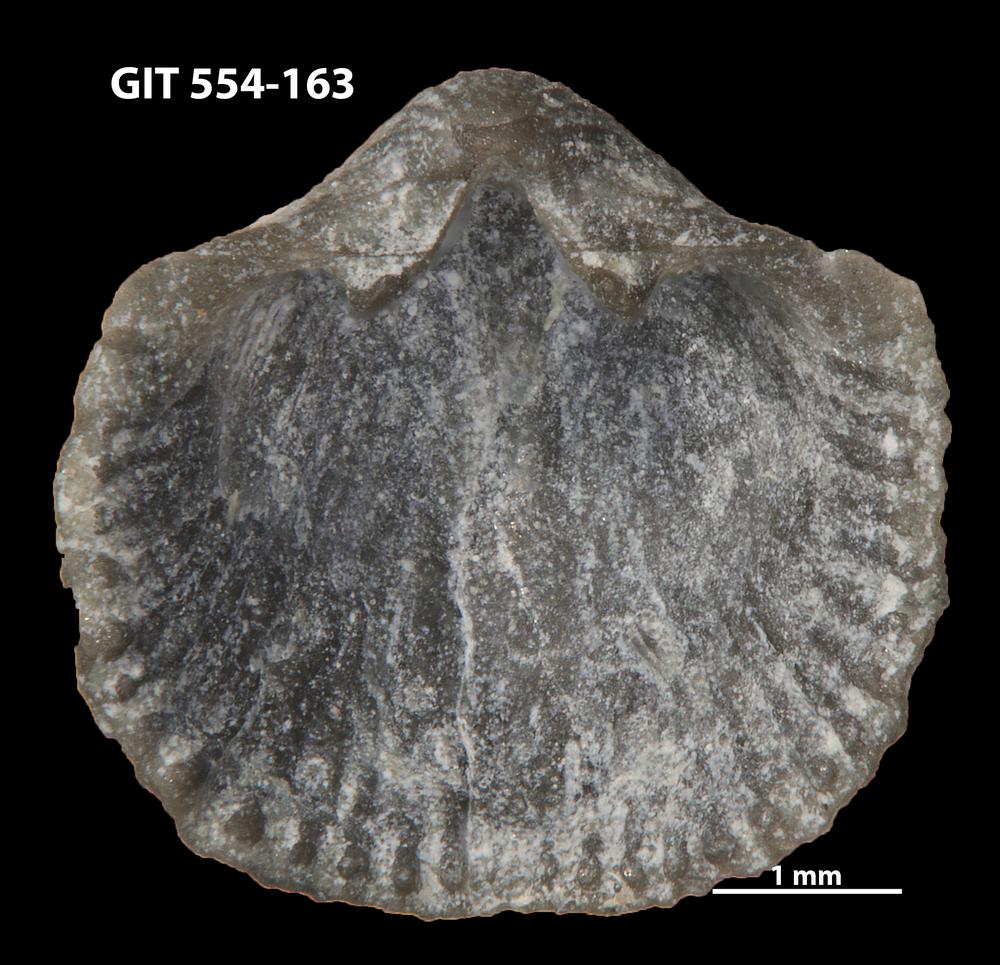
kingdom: Animalia
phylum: Brachiopoda
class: Rhynchonellata
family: Dalmanellidae
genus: Resserella
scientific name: Resserella sabrinae
